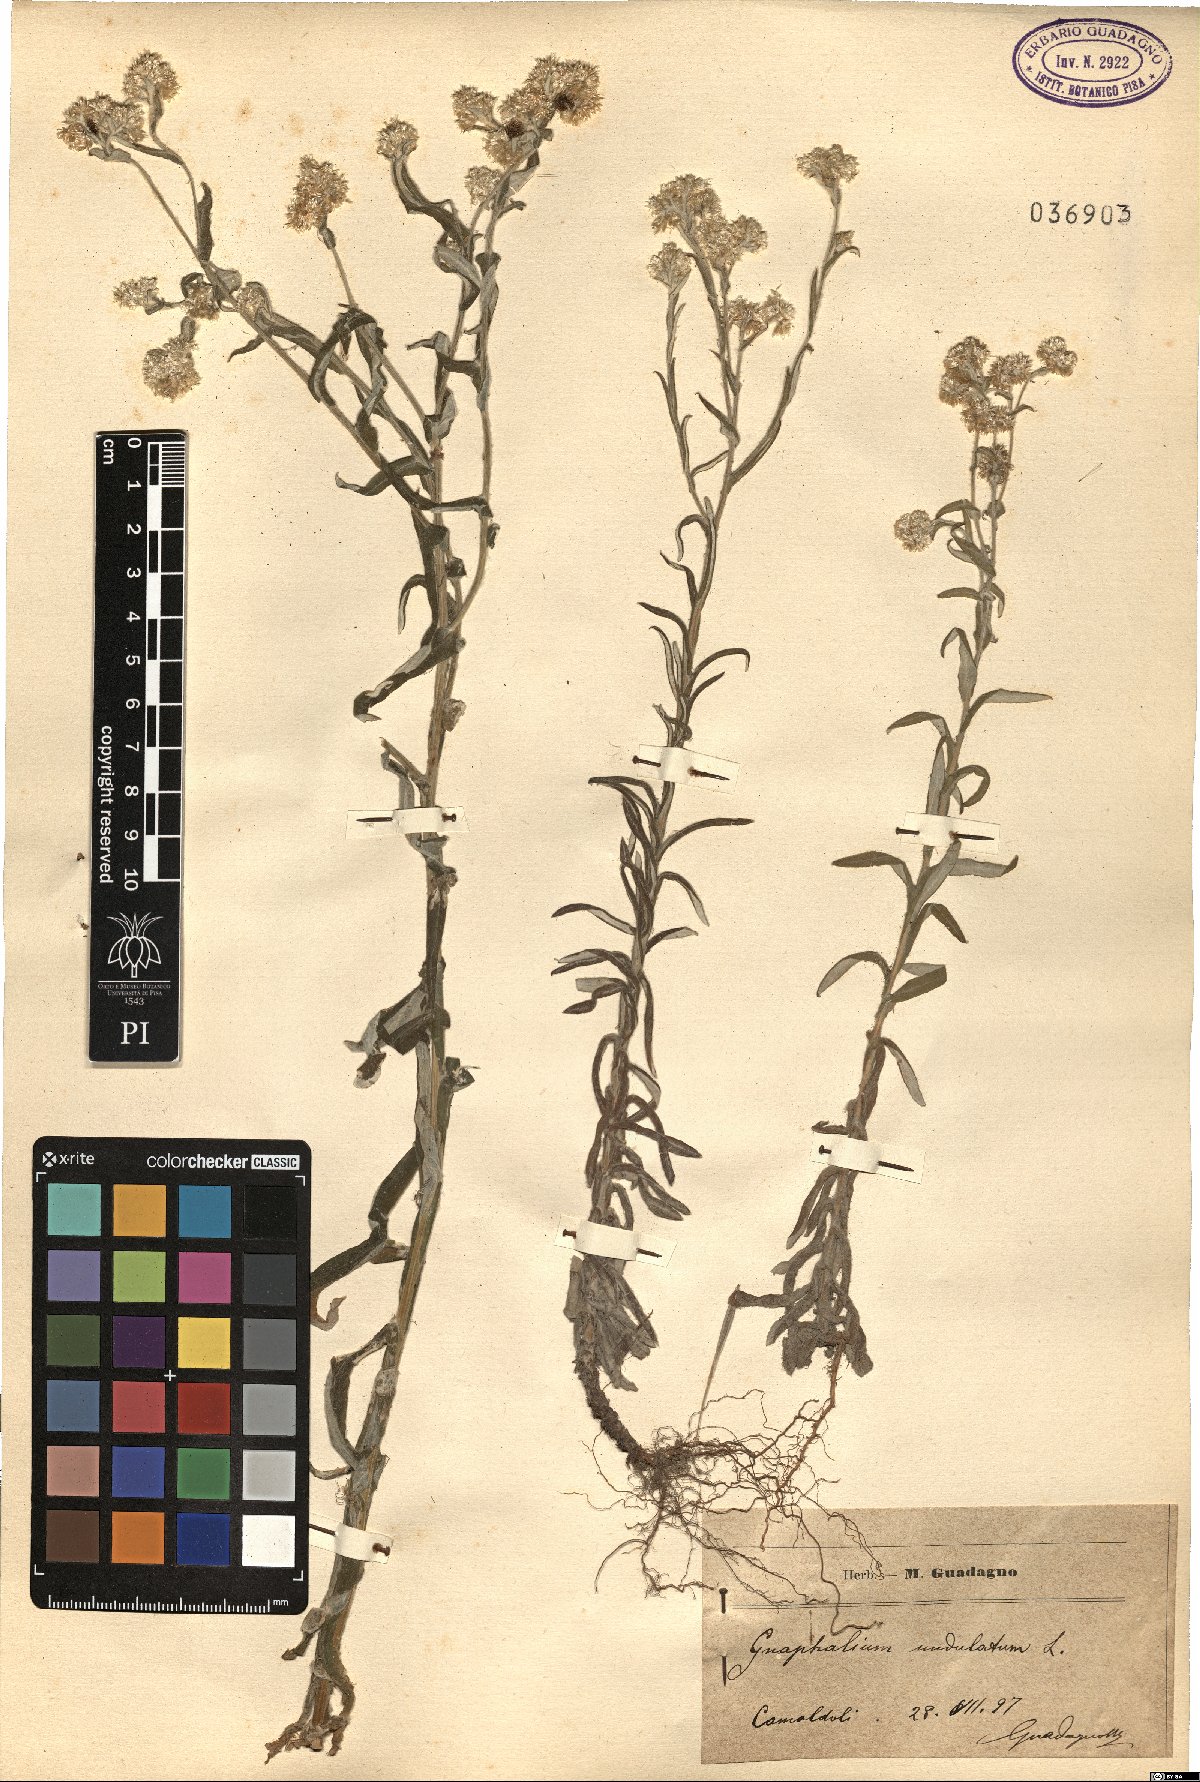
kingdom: Plantae
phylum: Tracheophyta
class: Magnoliopsida
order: Asterales
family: Asteraceae
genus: Pseudognaphalium
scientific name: Pseudognaphalium undulatum
